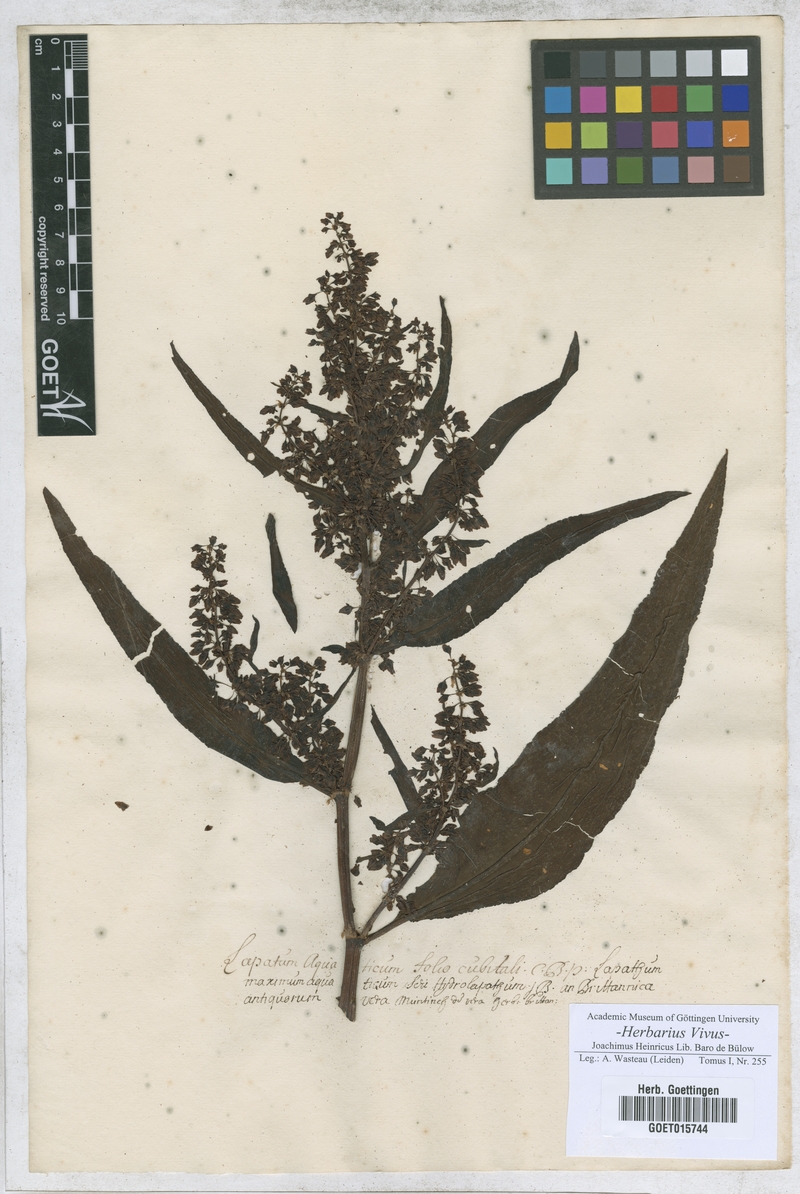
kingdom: Plantae
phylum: Tracheophyta
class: Magnoliopsida
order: Caryophyllales
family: Polygonaceae
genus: Rumex
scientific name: Rumex aquaticus
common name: Scottish dock
